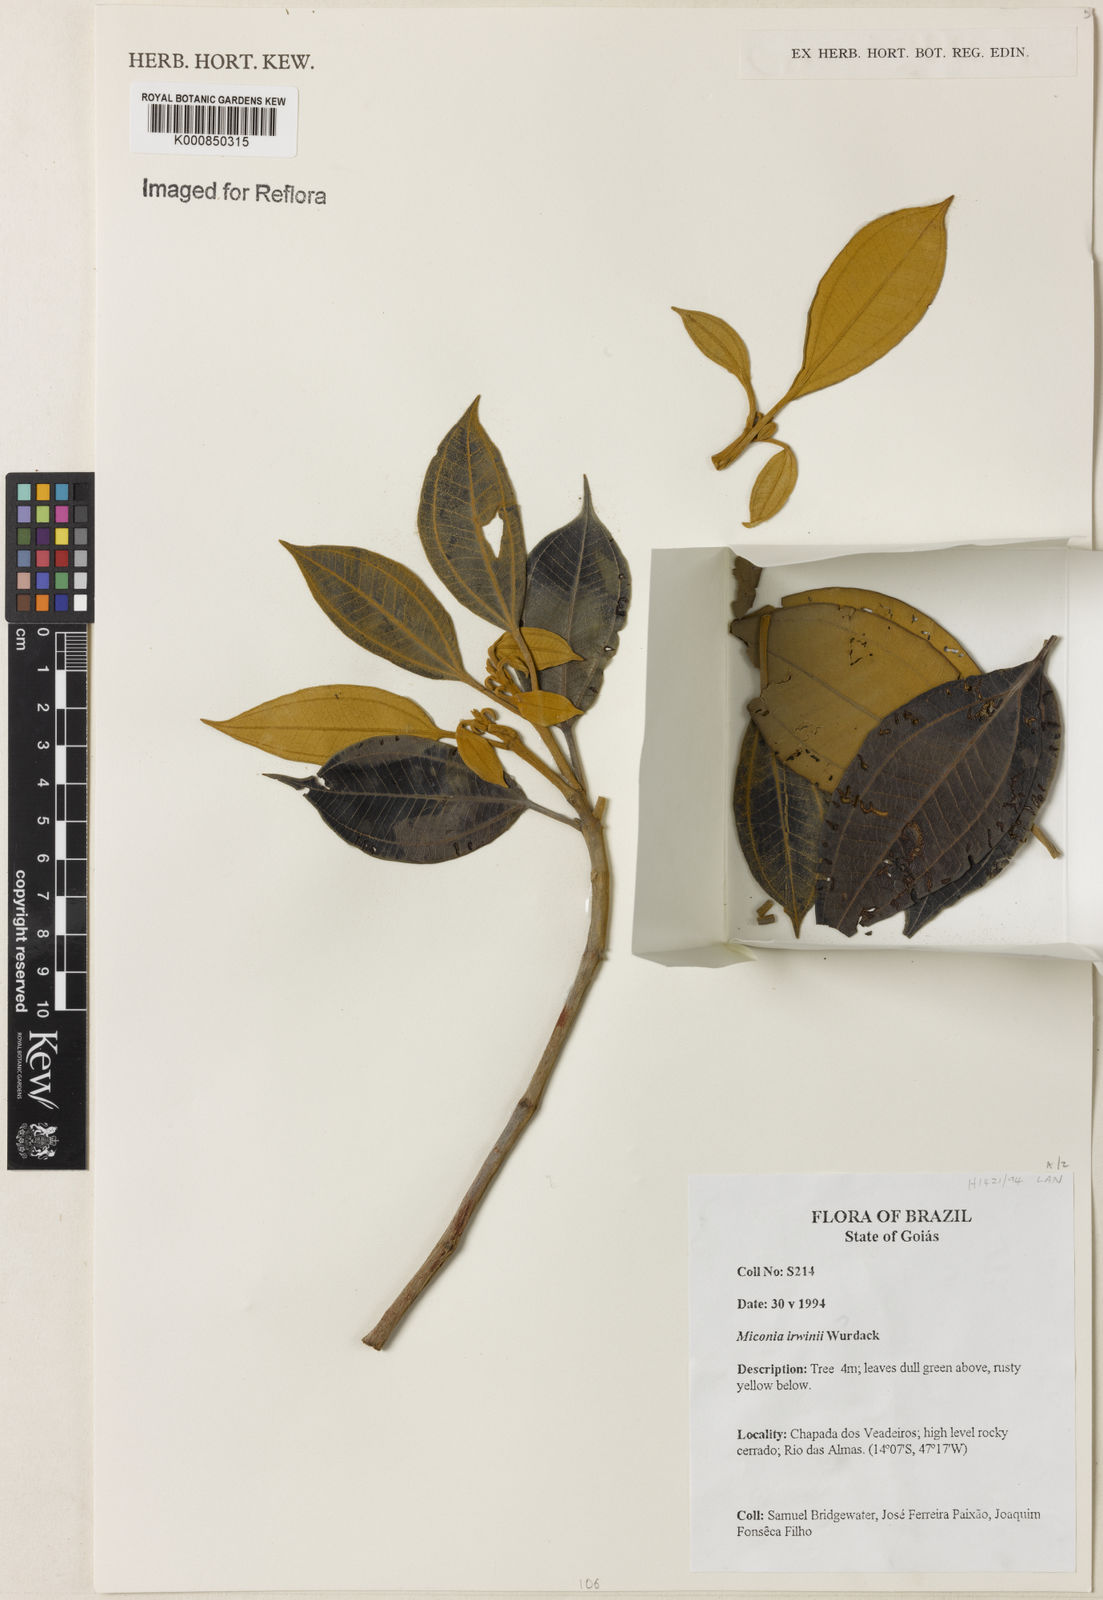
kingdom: Plantae
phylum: Tracheophyta
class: Magnoliopsida
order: Myrtales
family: Melastomataceae
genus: Miconia
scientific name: Miconia irwinii
